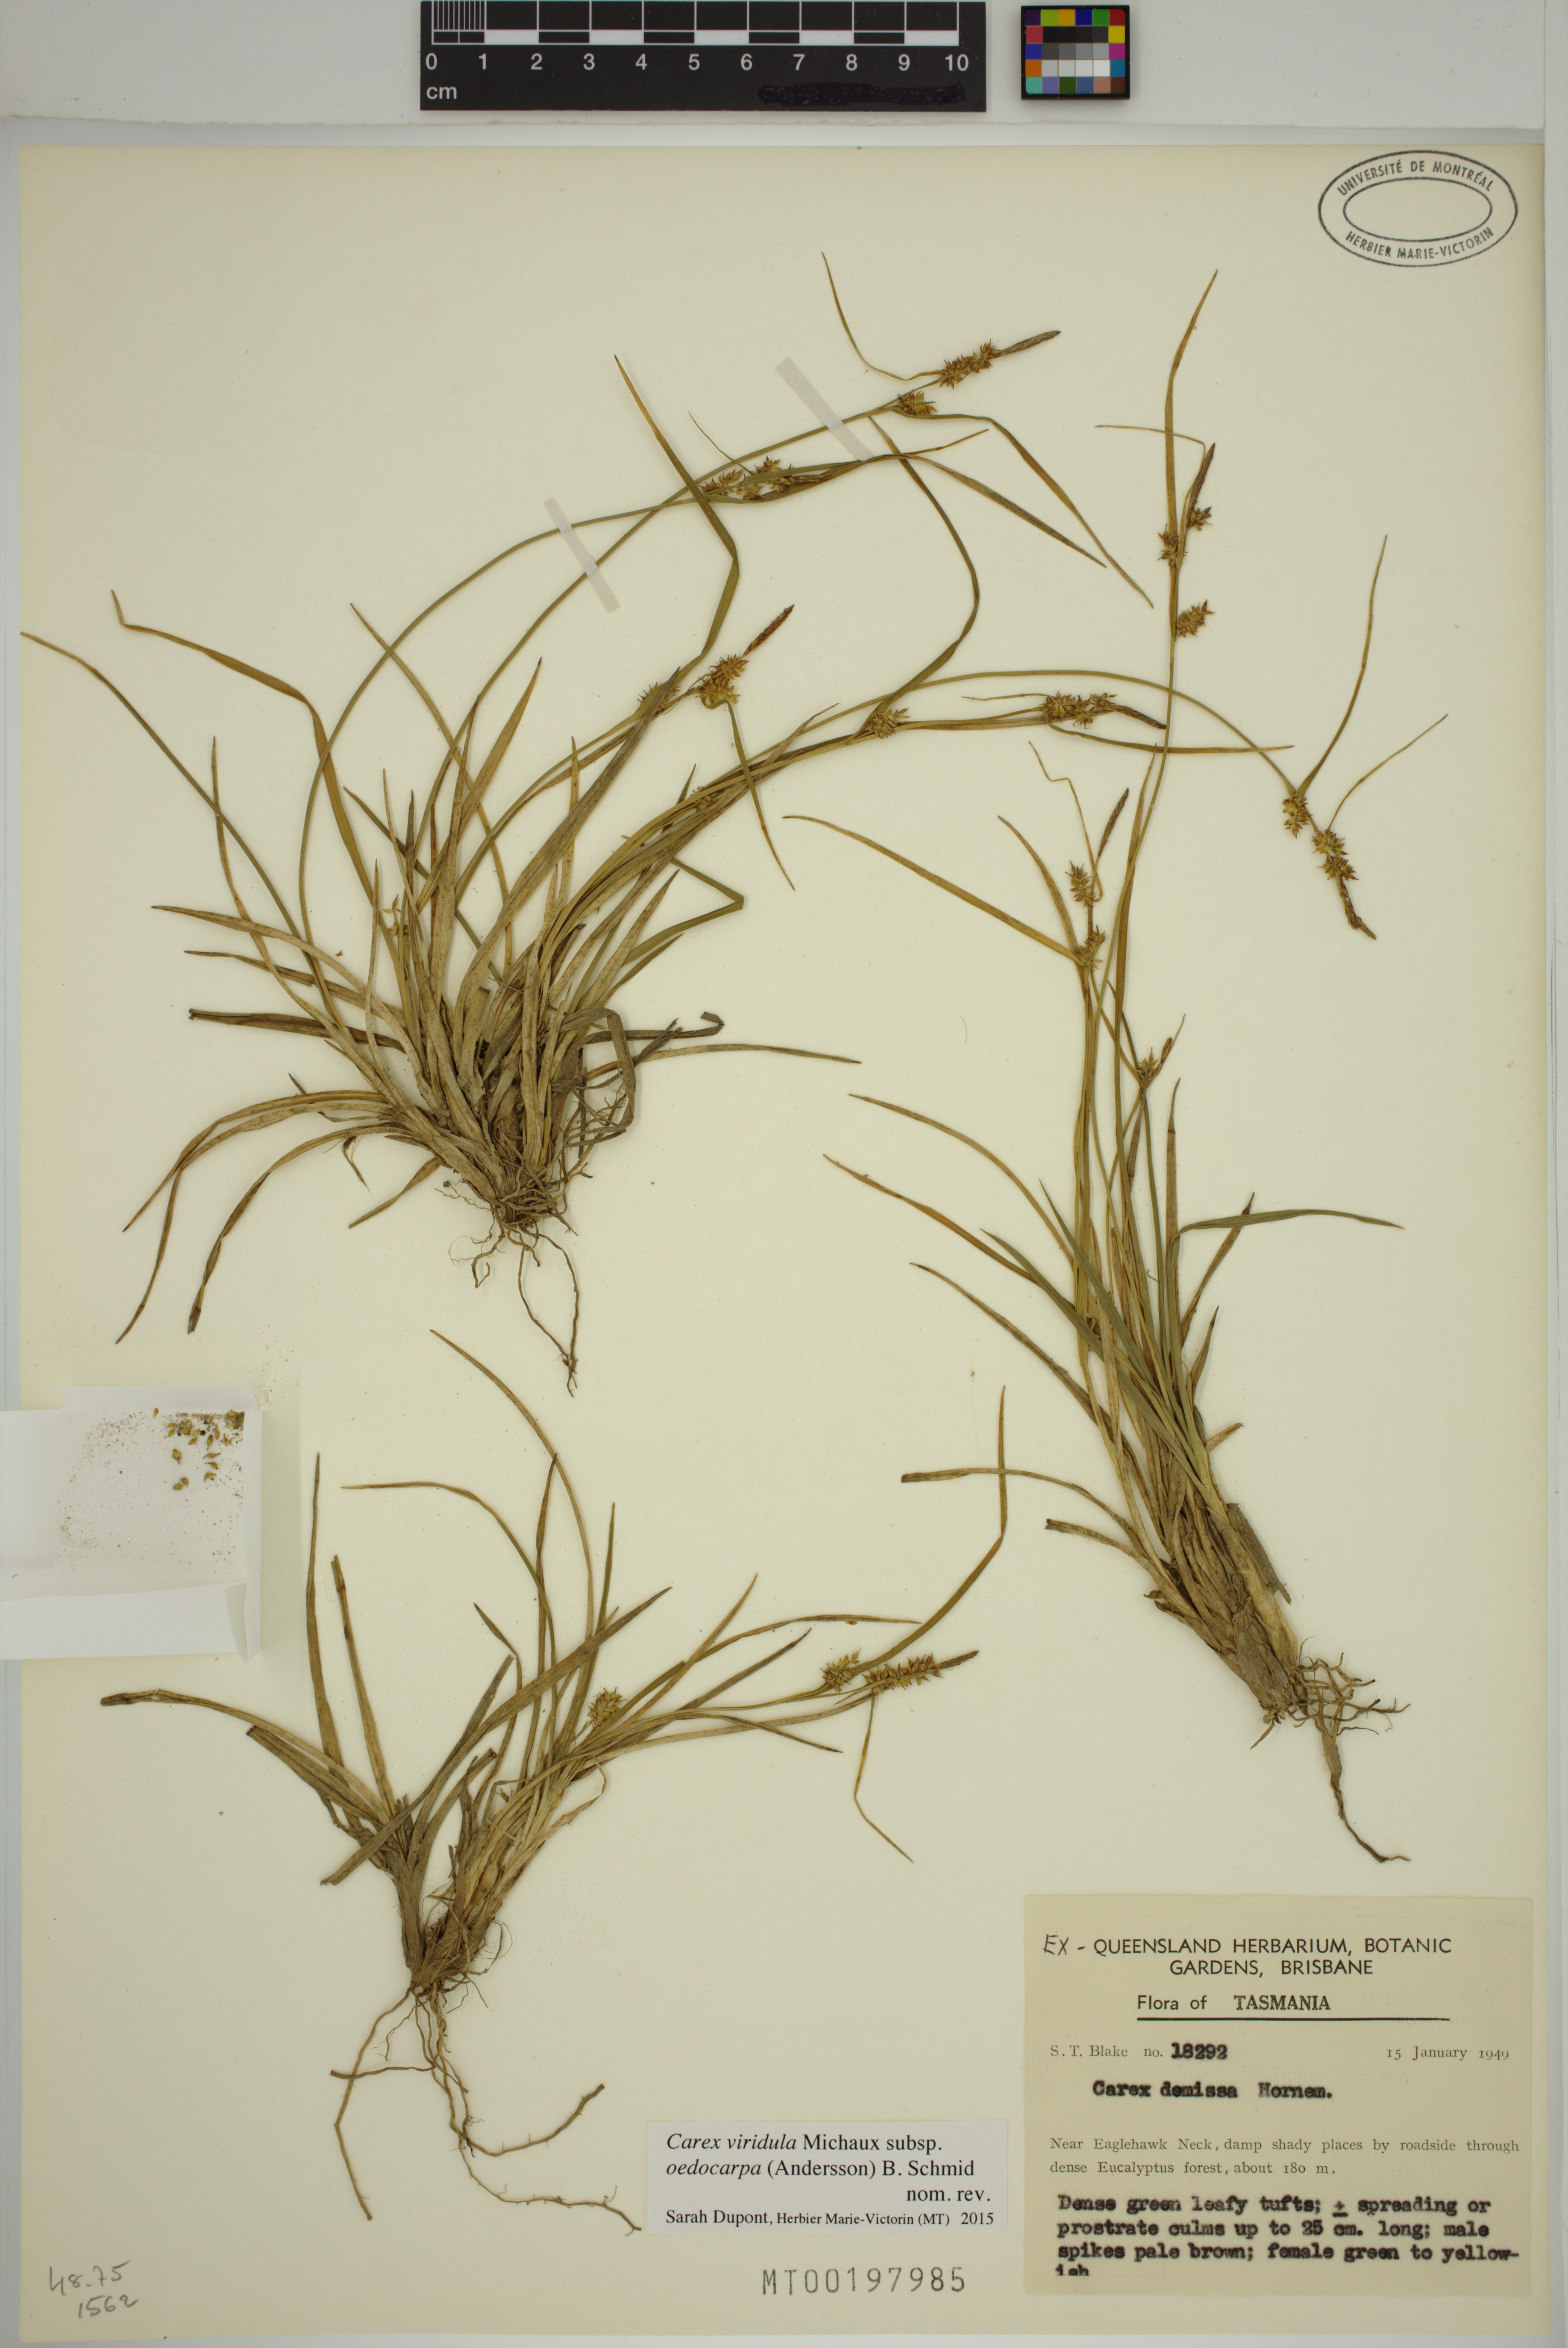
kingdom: Plantae
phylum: Tracheophyta
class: Liliopsida
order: Poales
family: Cyperaceae
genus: Carex
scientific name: Carex demissa
